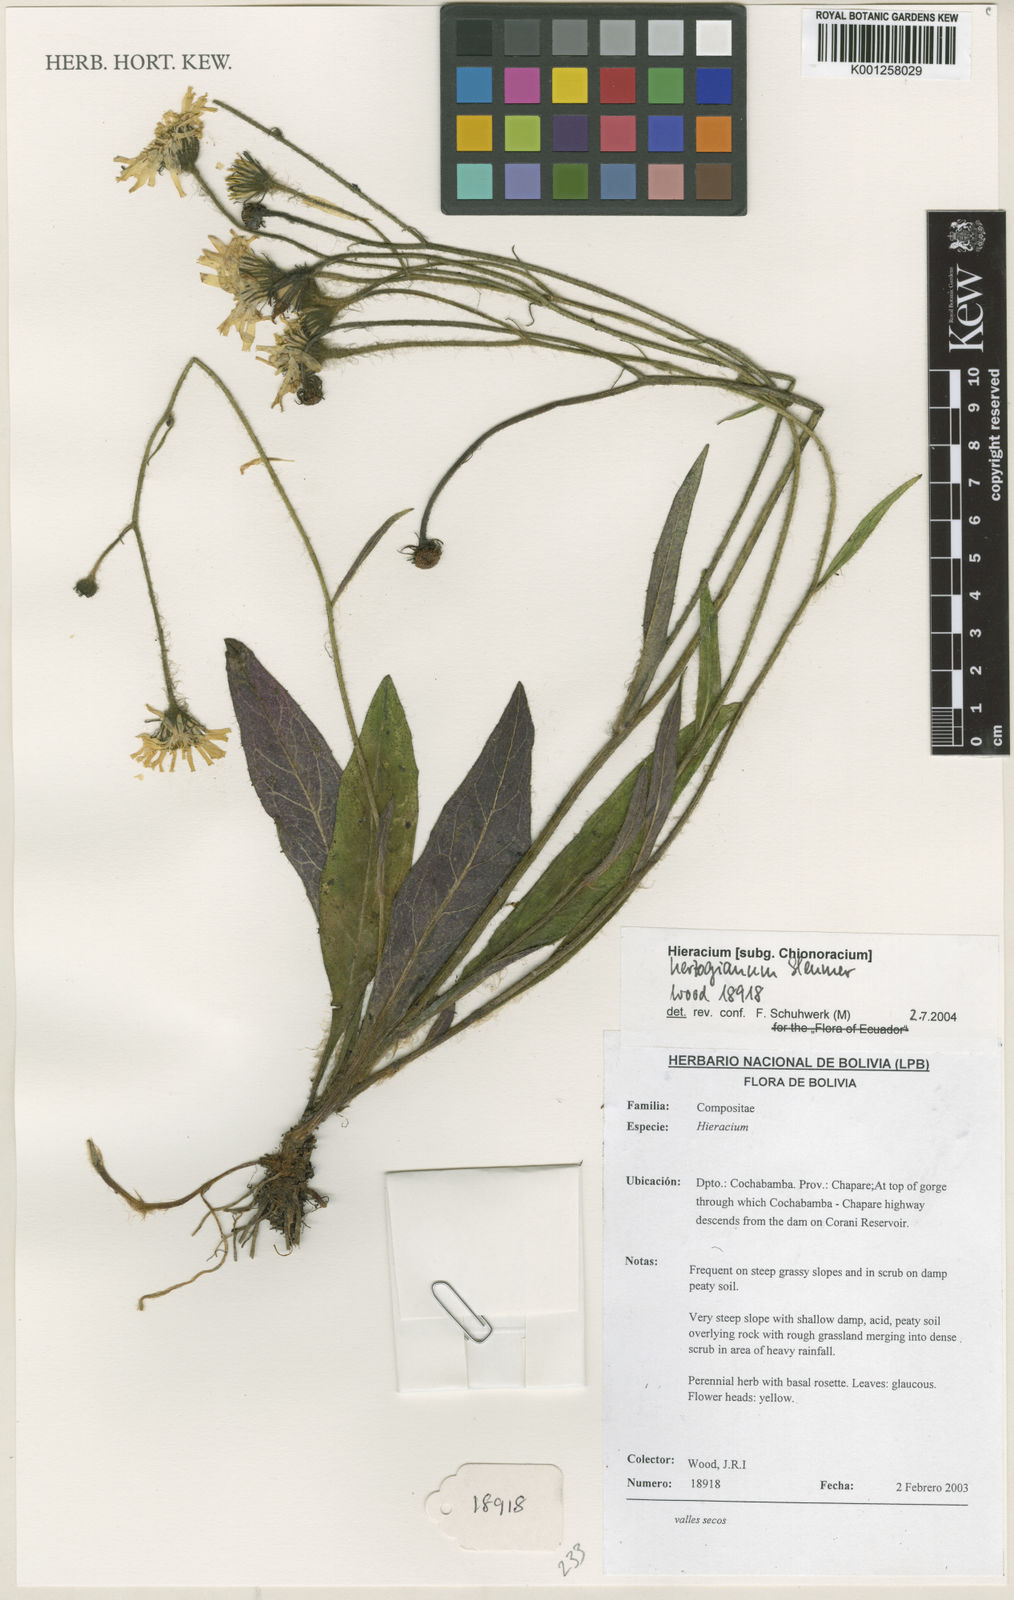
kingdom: Plantae
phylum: Tracheophyta
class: Magnoliopsida
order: Asterales
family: Asteraceae
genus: Hieracium
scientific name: Hieracium herzogianum
